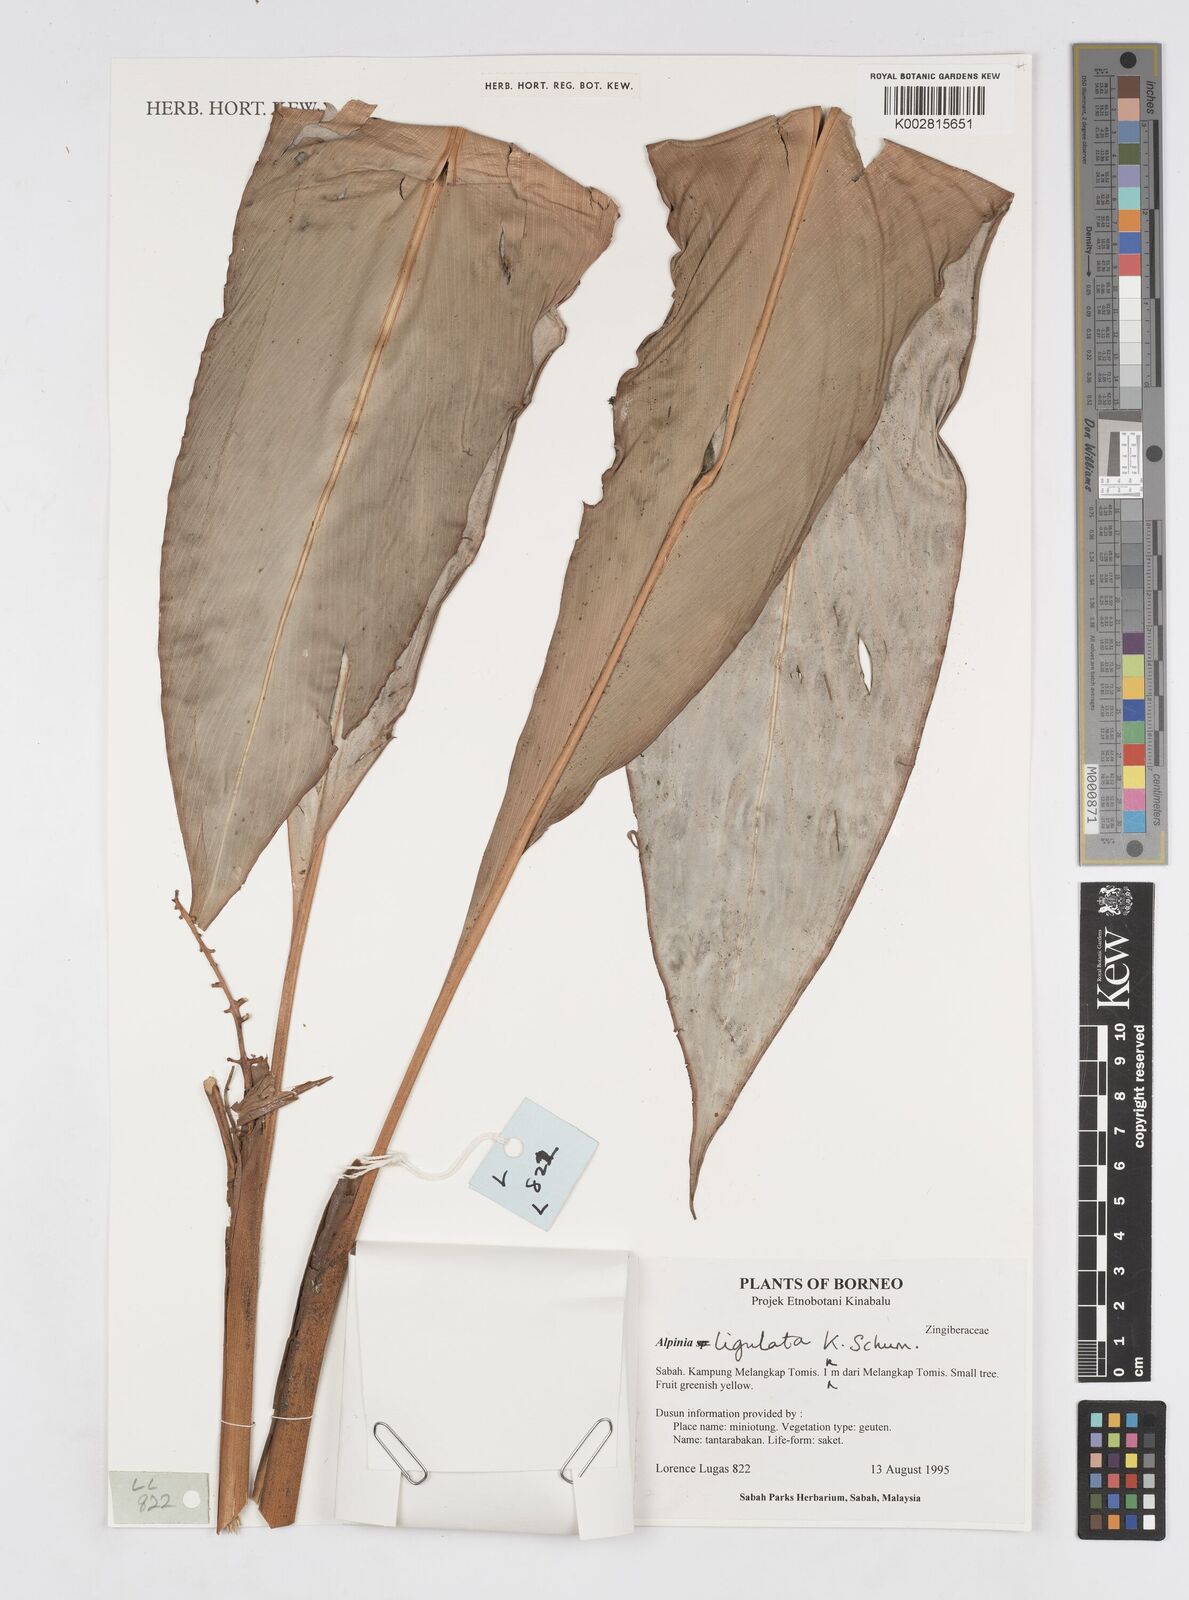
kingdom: Plantae
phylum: Tracheophyta
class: Liliopsida
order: Zingiberales
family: Zingiberaceae
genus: Alpinia
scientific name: Alpinia ligulata
